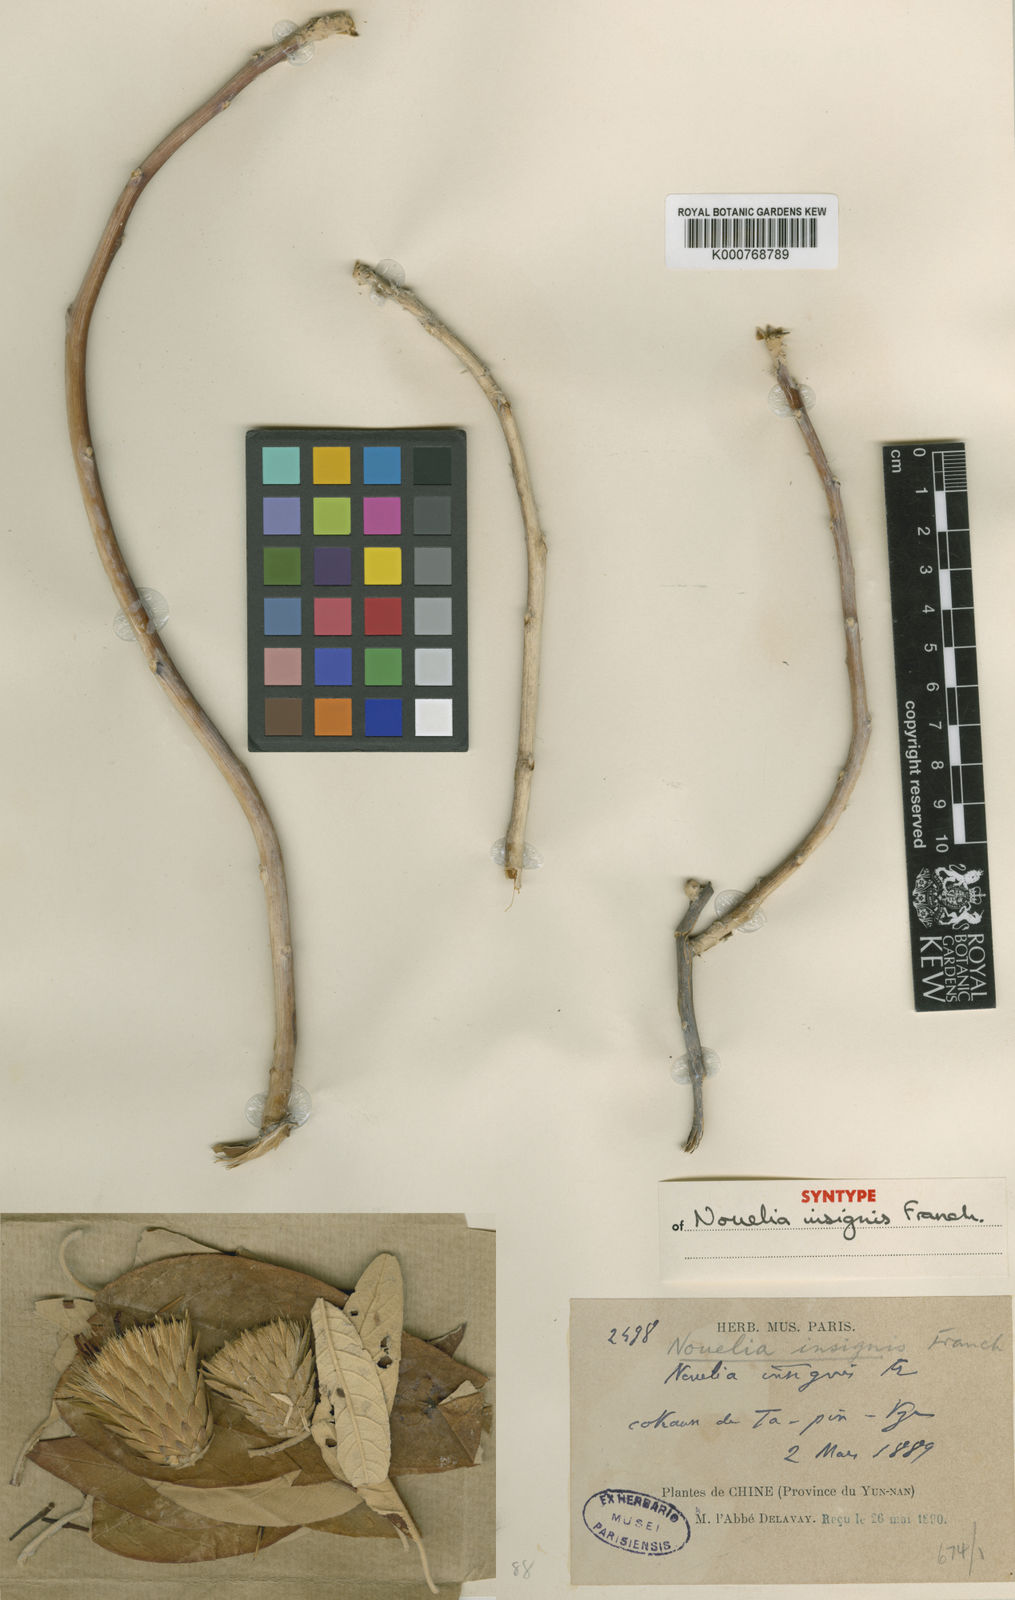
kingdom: Plantae
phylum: Tracheophyta
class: Magnoliopsida
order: Asterales
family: Asteraceae
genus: Nouelia
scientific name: Nouelia insignis
